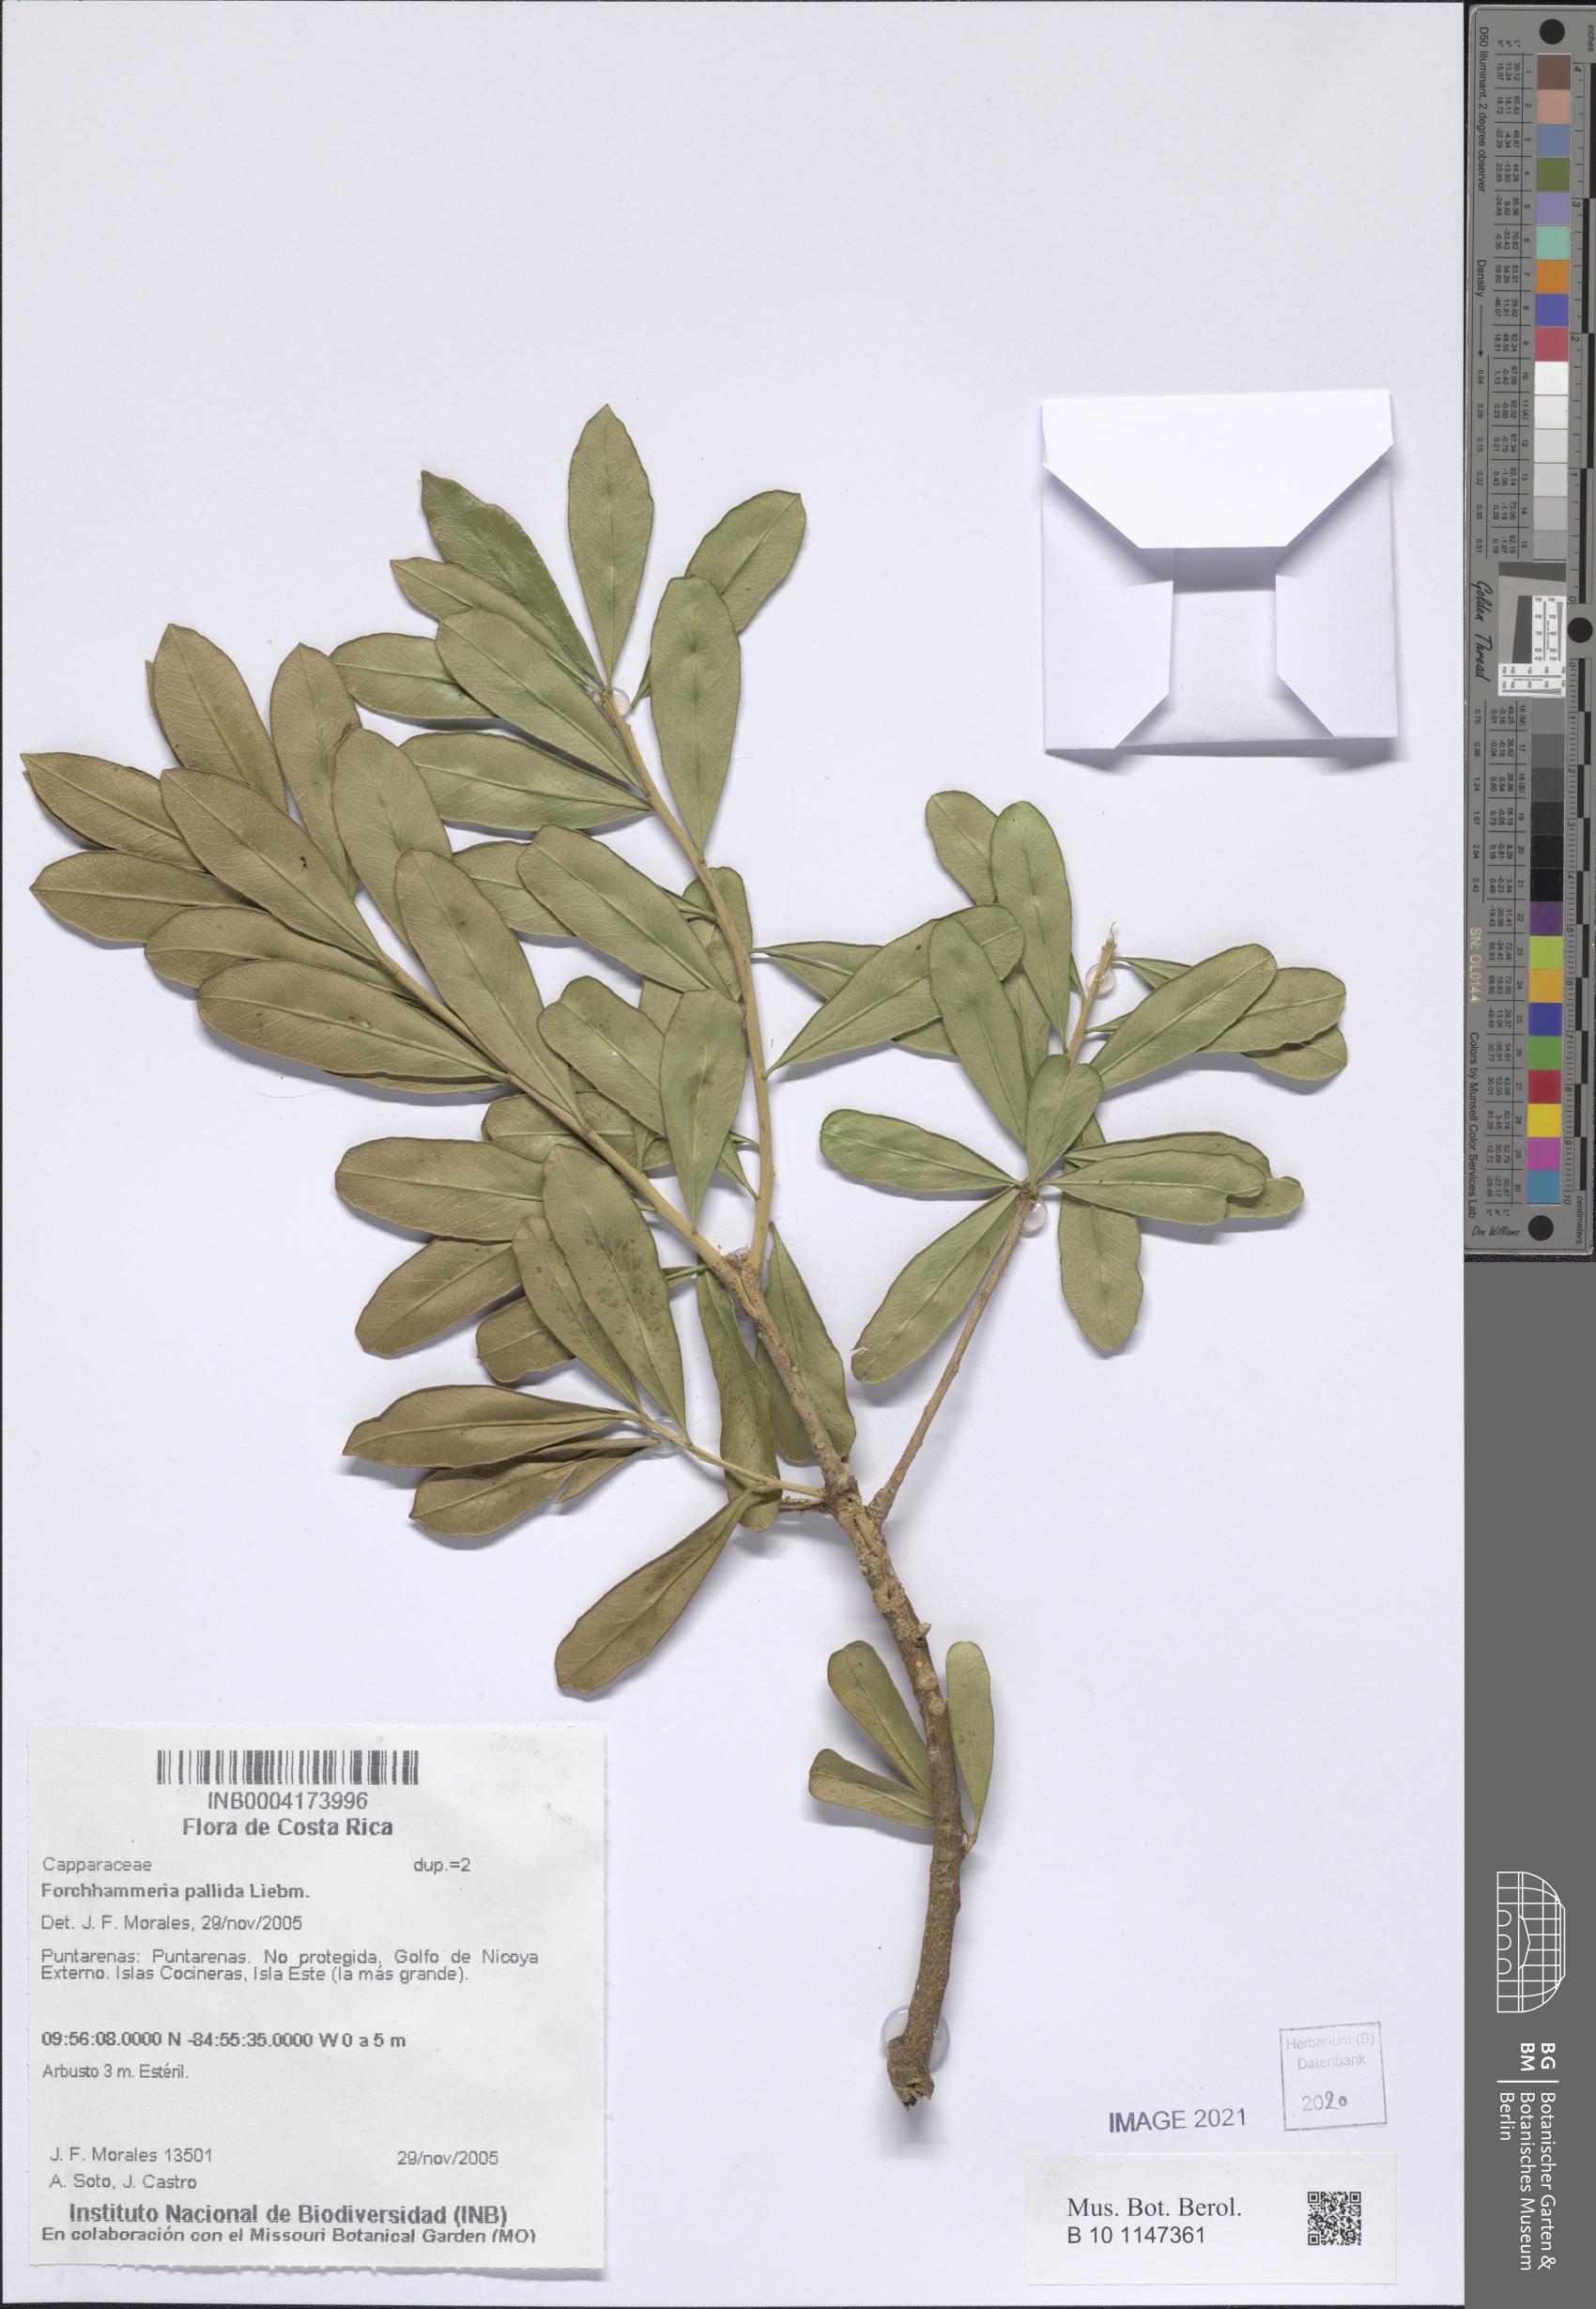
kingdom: Plantae
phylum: Tracheophyta
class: Magnoliopsida
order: Brassicales
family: Stixaceae
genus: Forchhammeria
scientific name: Forchhammeria pallida
